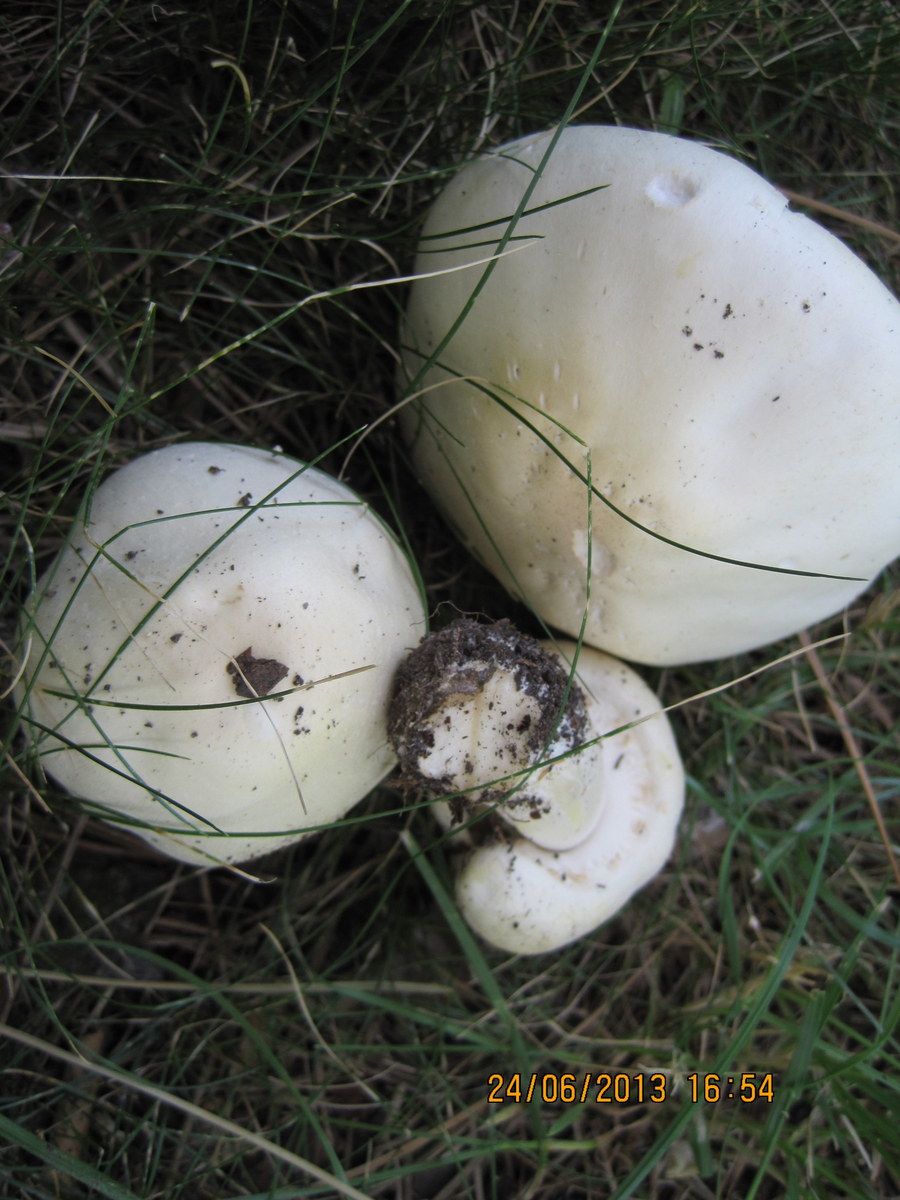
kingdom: Fungi
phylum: Basidiomycota
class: Agaricomycetes
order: Agaricales
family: Agaricaceae
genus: Agaricus
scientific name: Agaricus arvensis
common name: ager-champignon
